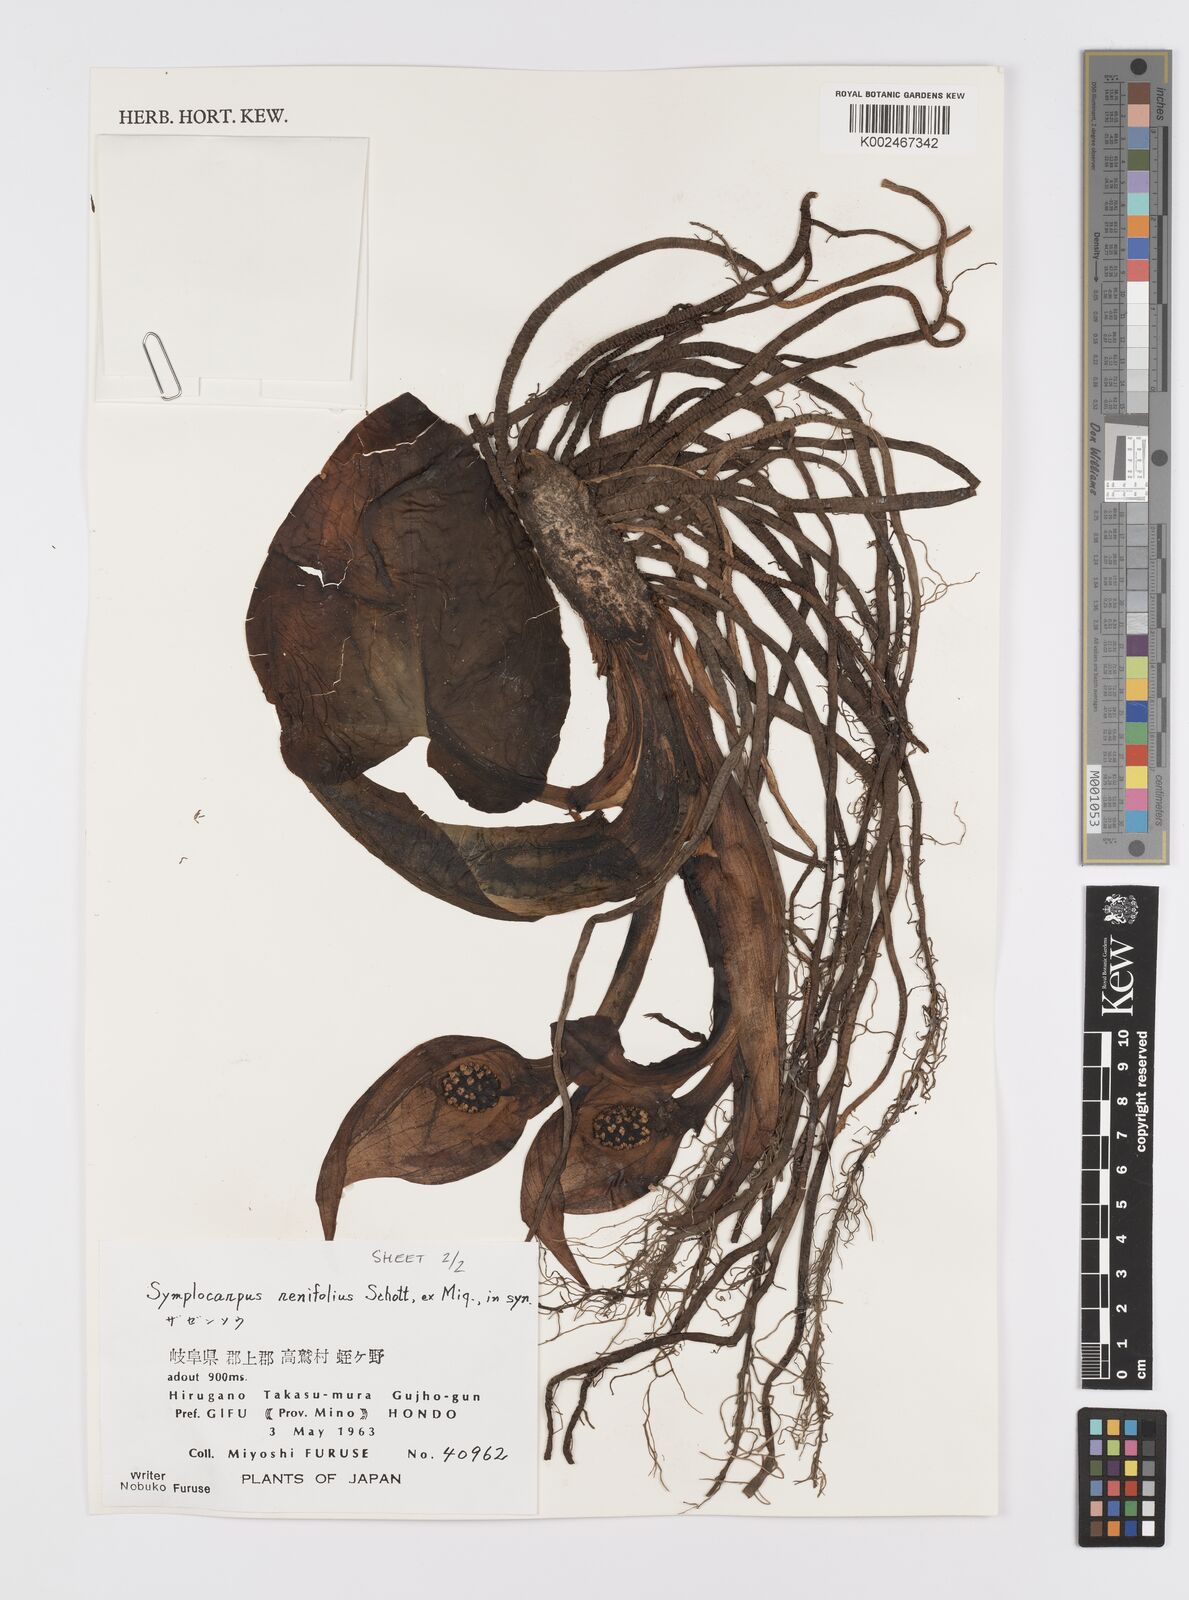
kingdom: Plantae
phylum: Tracheophyta
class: Liliopsida
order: Alismatales
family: Araceae
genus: Symplocarpus
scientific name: Symplocarpus renifolius
